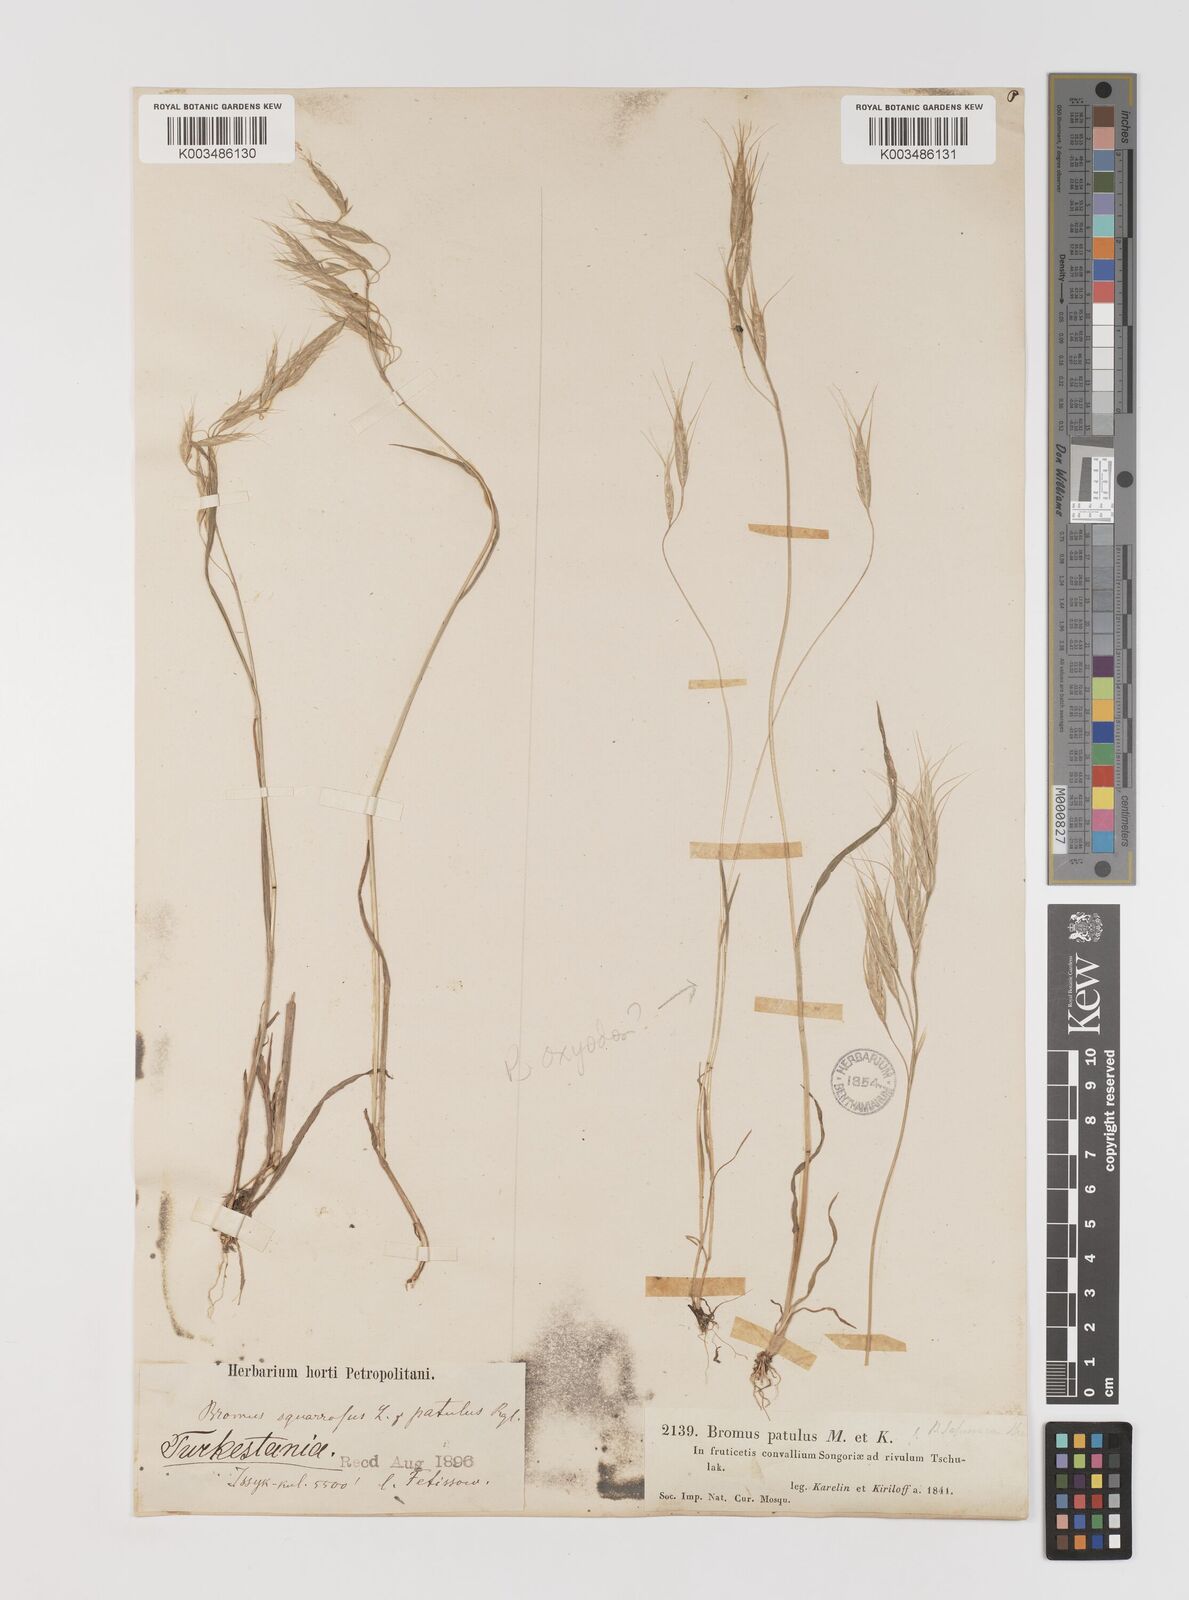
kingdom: Plantae
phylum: Tracheophyta
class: Liliopsida
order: Poales
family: Poaceae
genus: Bromus
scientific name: Bromus japonicus
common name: Japanese brome
